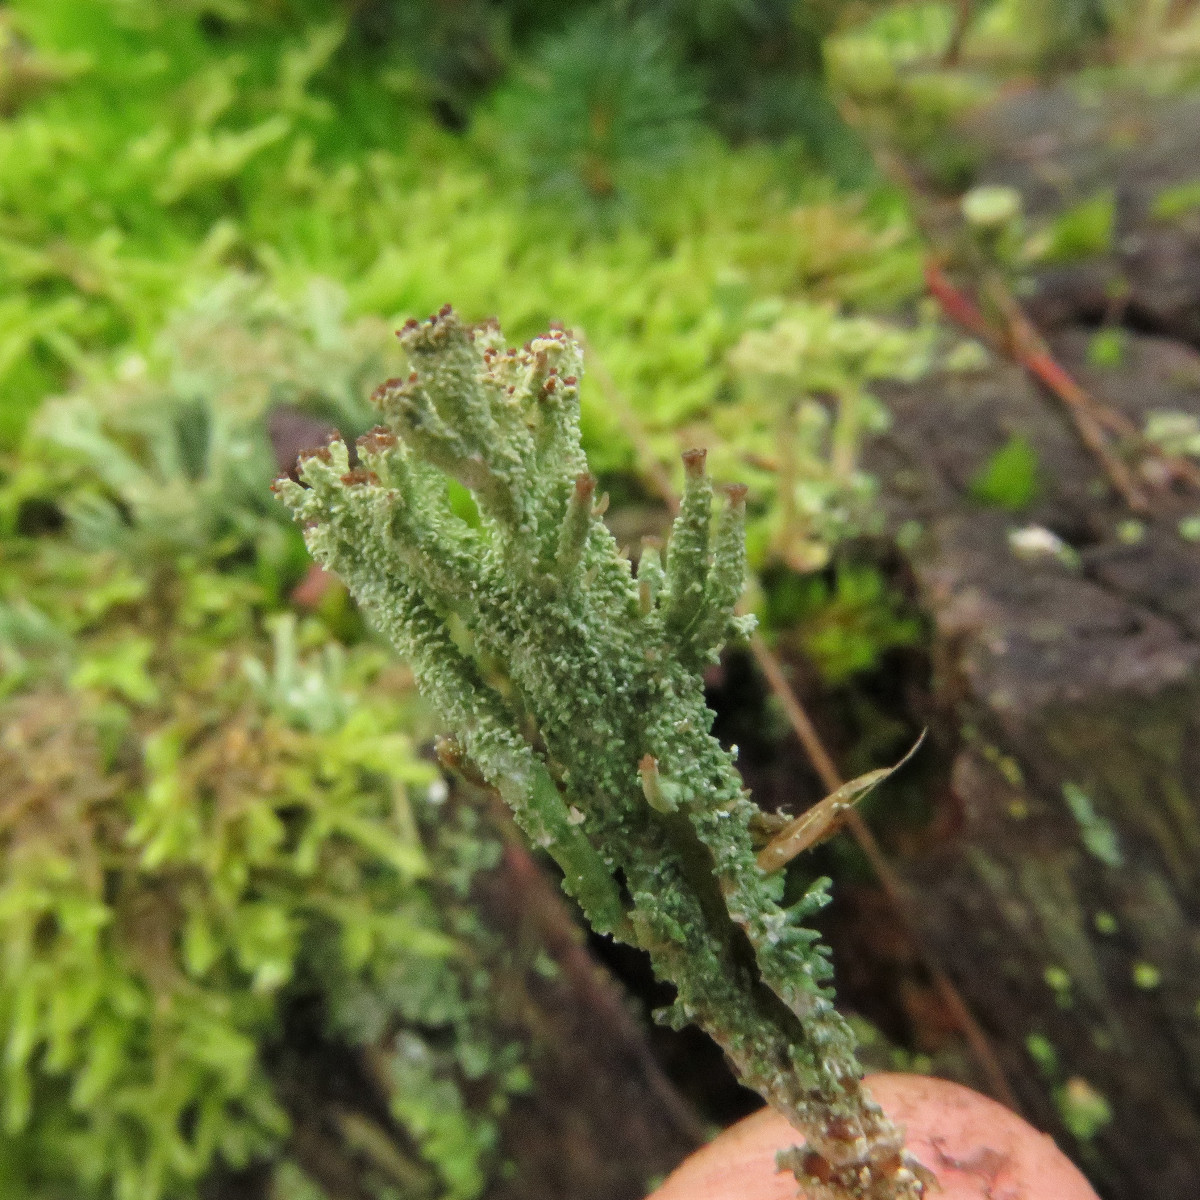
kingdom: Fungi
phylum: Ascomycota
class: Lecanoromycetes
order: Lecanorales
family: Cladoniaceae
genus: Cladonia
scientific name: Cladonia ramulosa
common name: kliddet bægerlav
